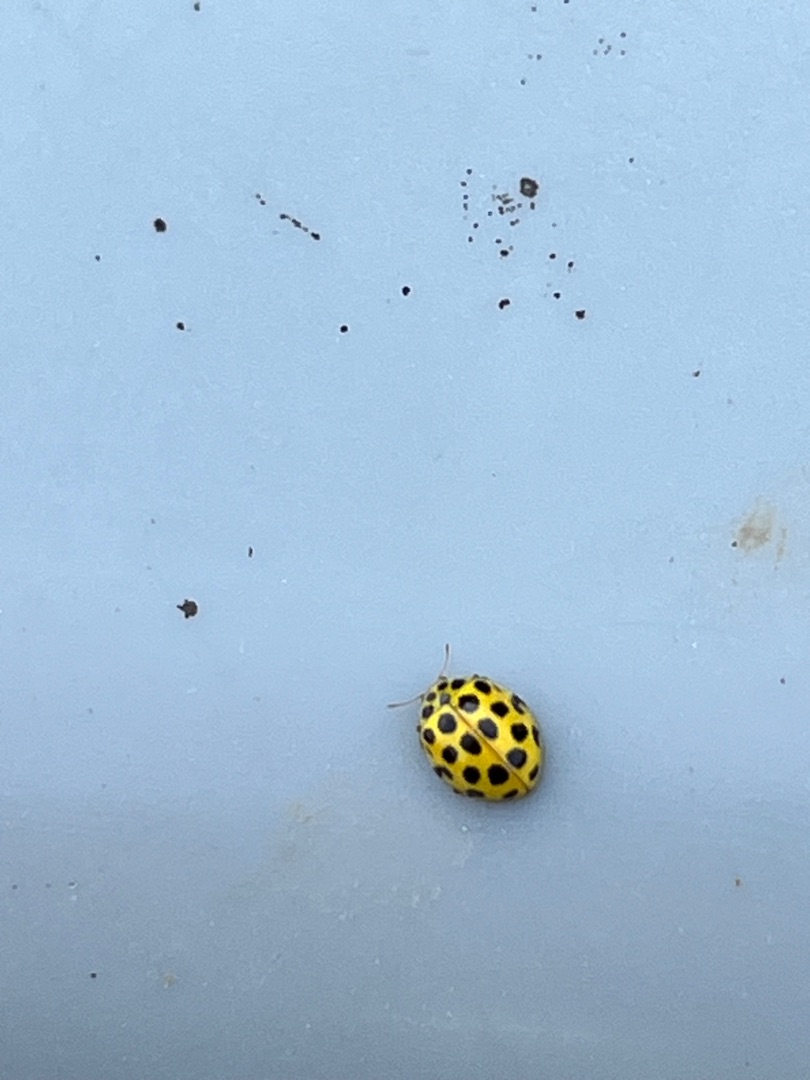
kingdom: Animalia
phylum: Arthropoda
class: Insecta
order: Coleoptera
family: Coccinellidae
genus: Psyllobora
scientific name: Psyllobora vigintiduopunctata
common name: Toogtyveplettet mariehøne
